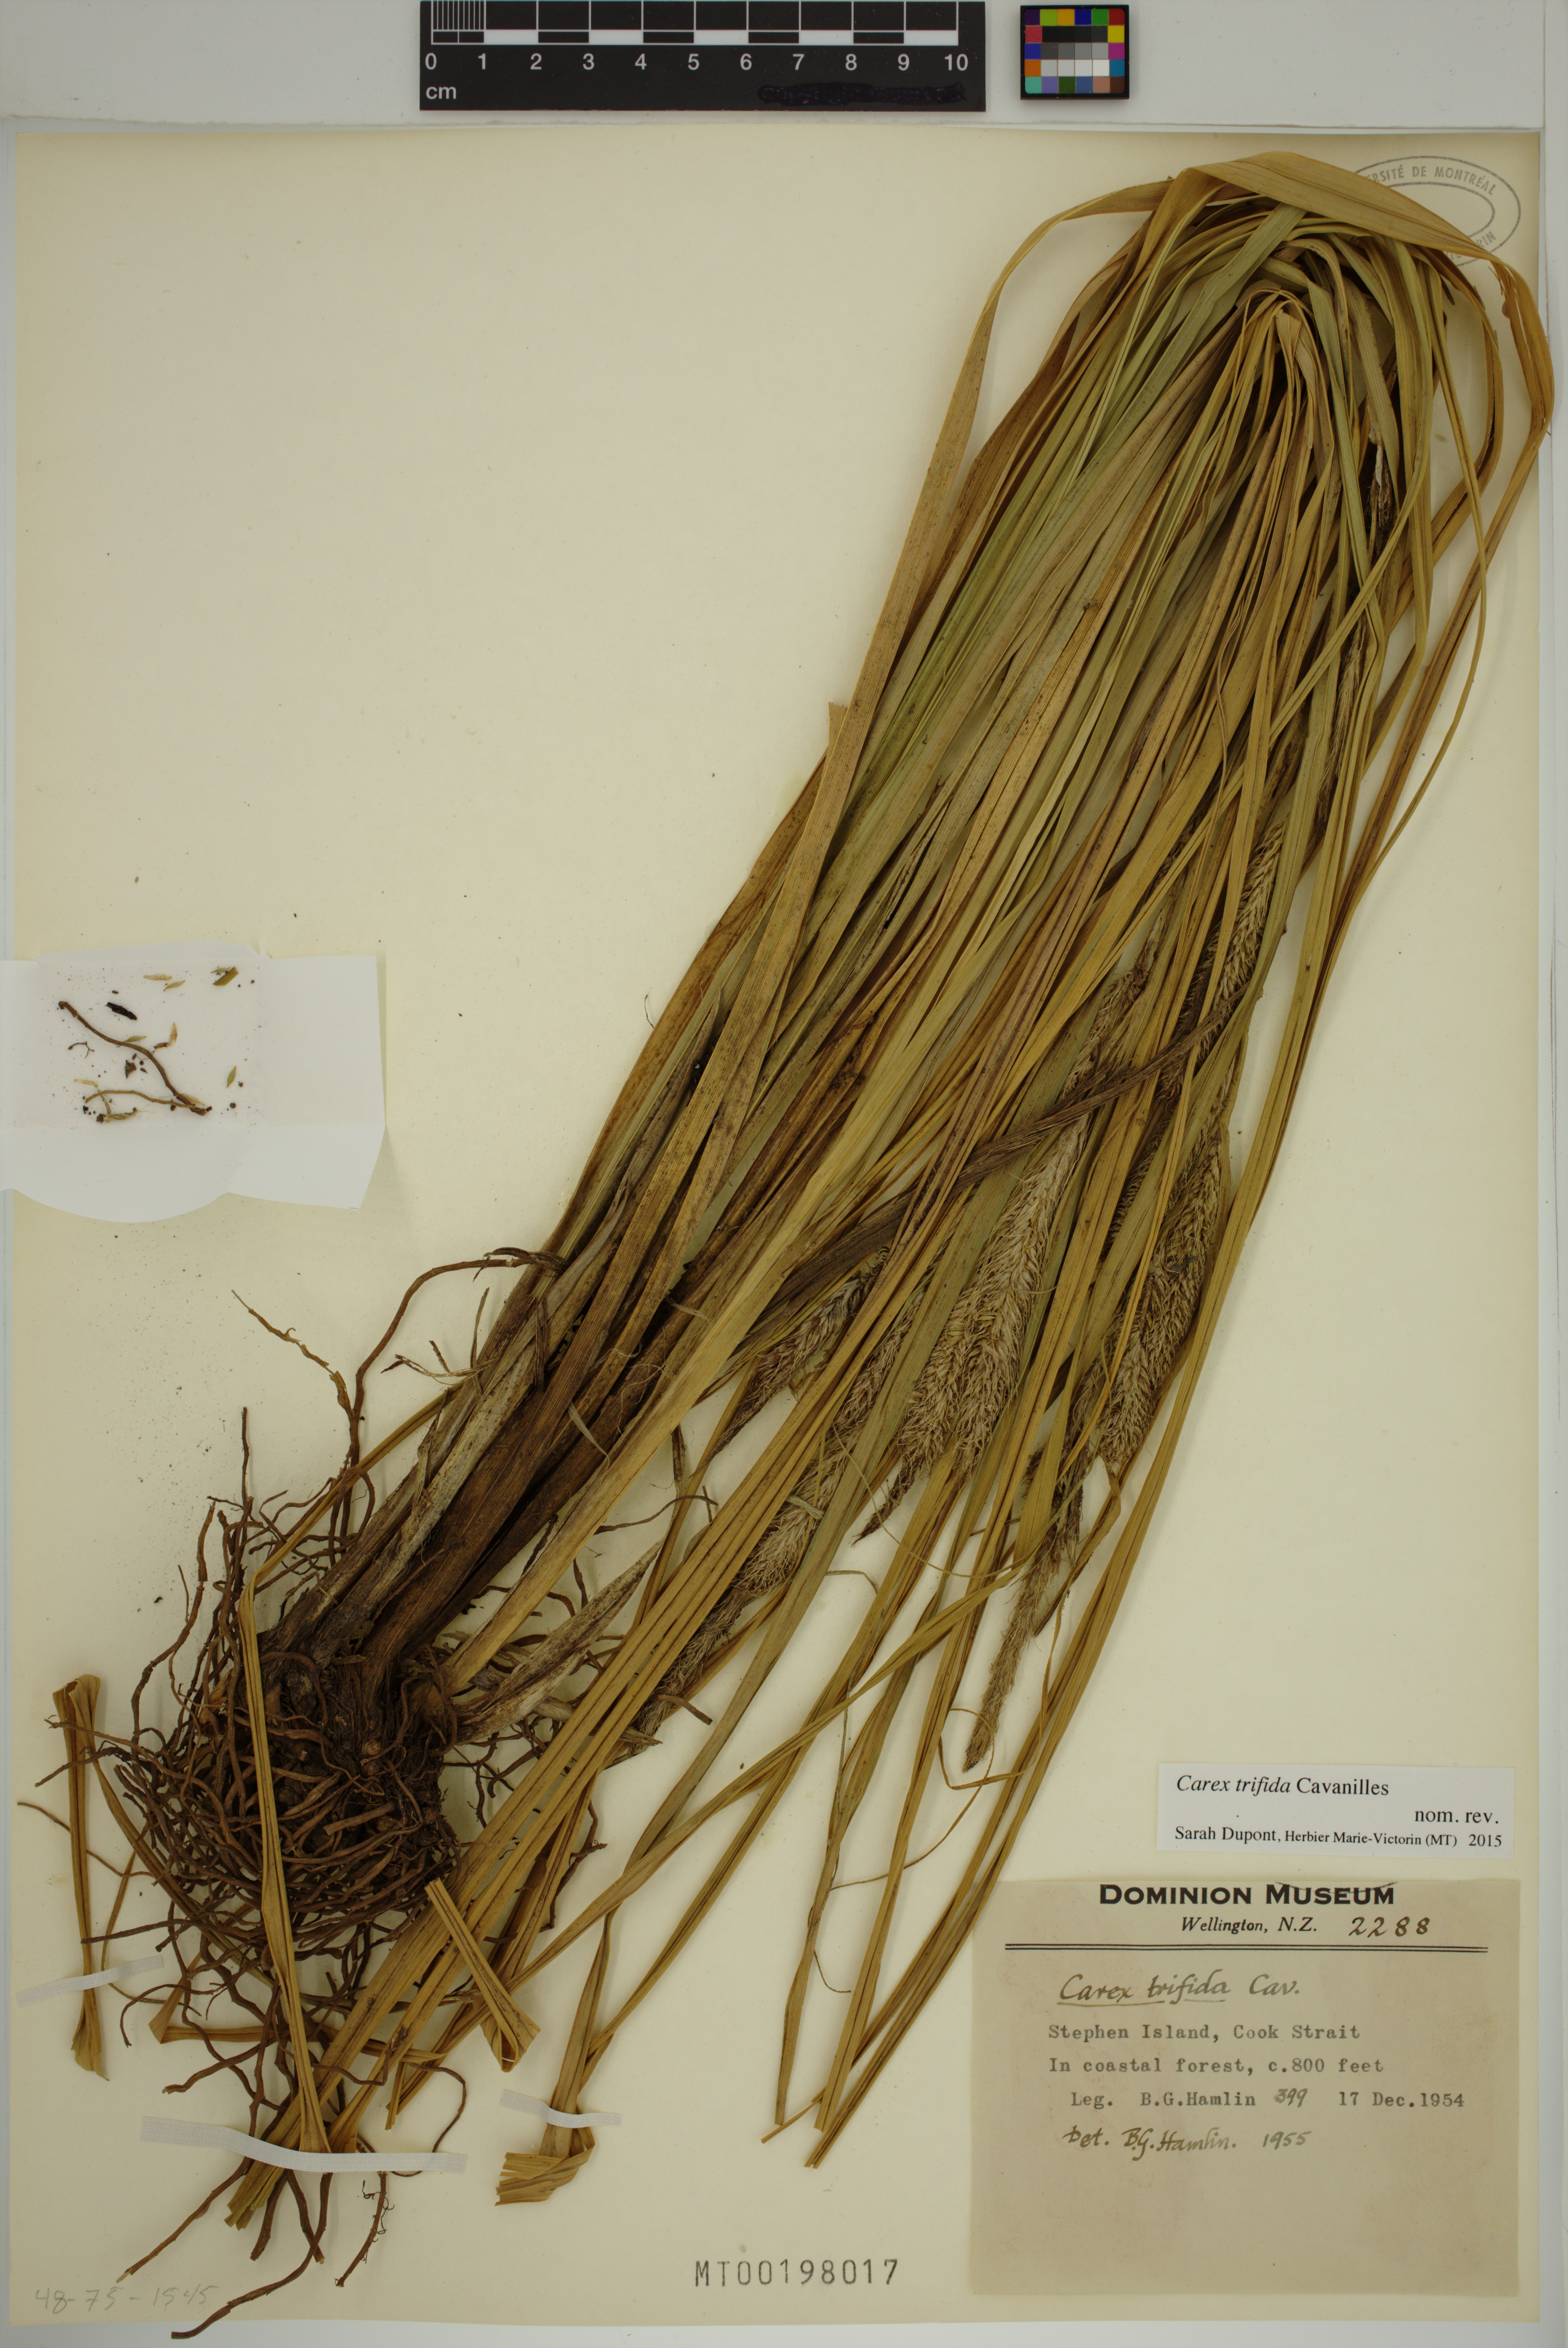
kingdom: Plantae
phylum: Tracheophyta
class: Liliopsida
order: Poales
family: Cyperaceae
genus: Carex
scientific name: Carex trifida
